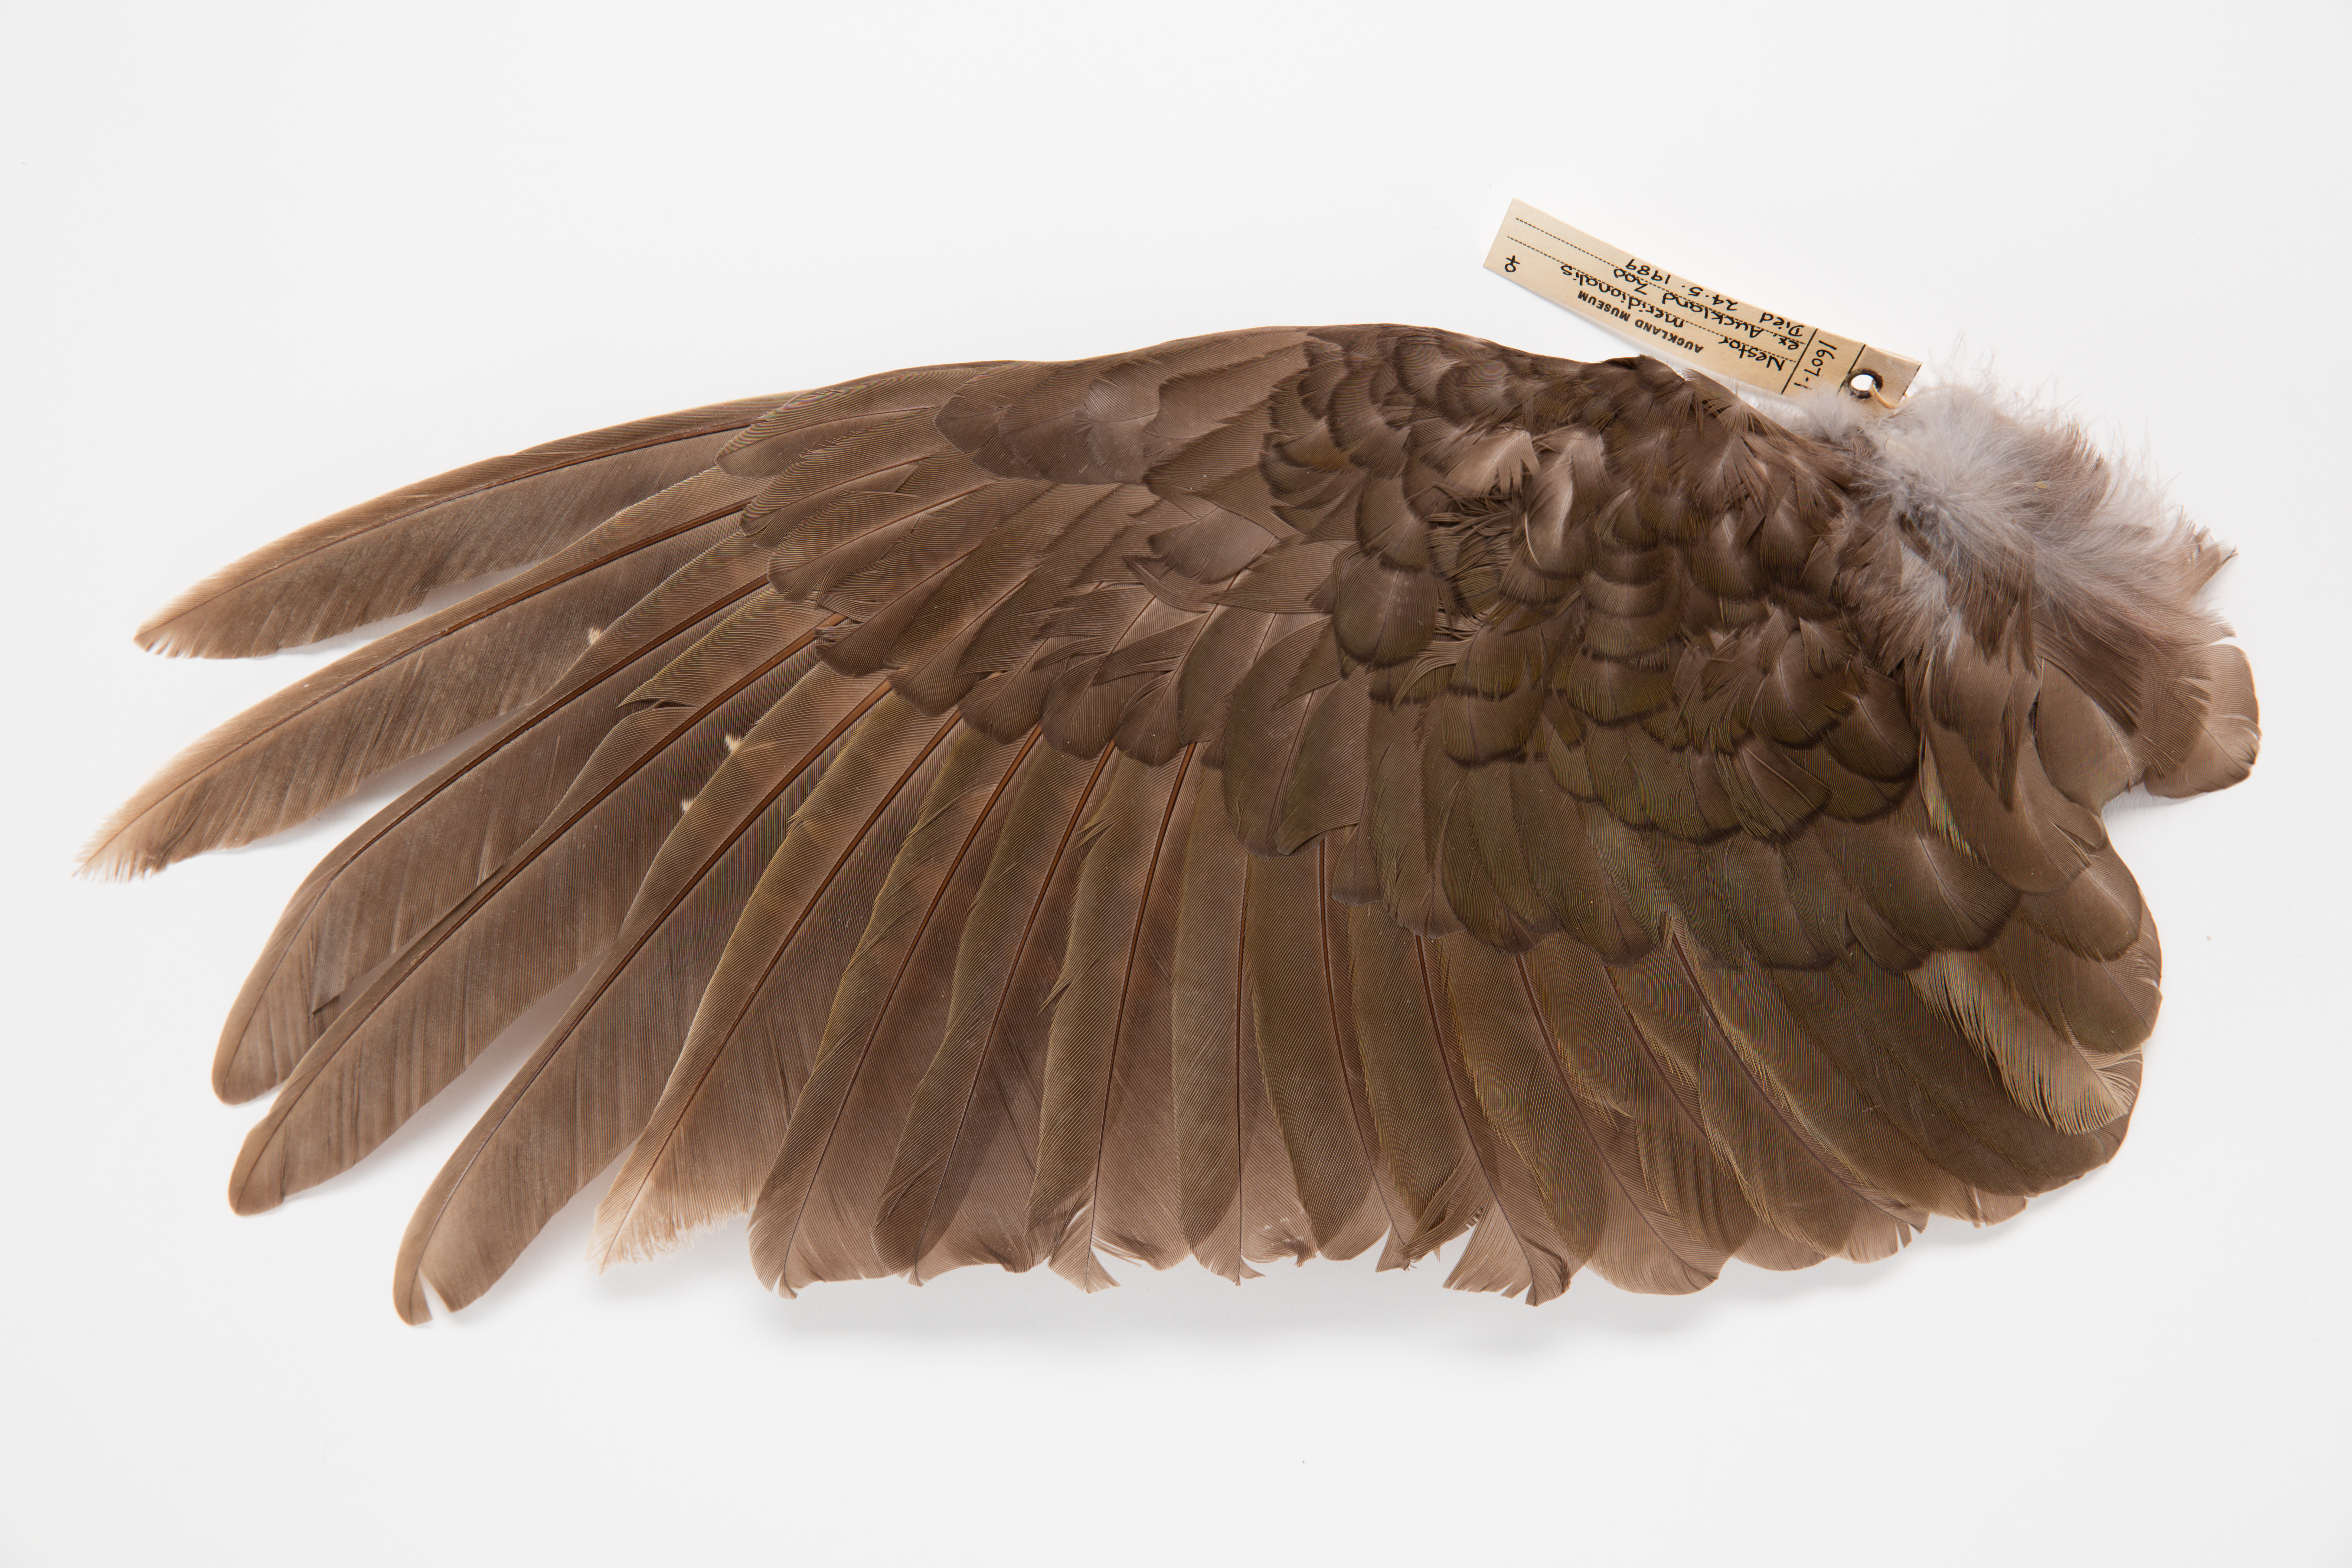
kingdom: Animalia
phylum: Chordata
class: Aves
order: Psittaciformes
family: Psittacidae
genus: Nestor
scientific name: Nestor meridionalis
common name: New zealand kaka
